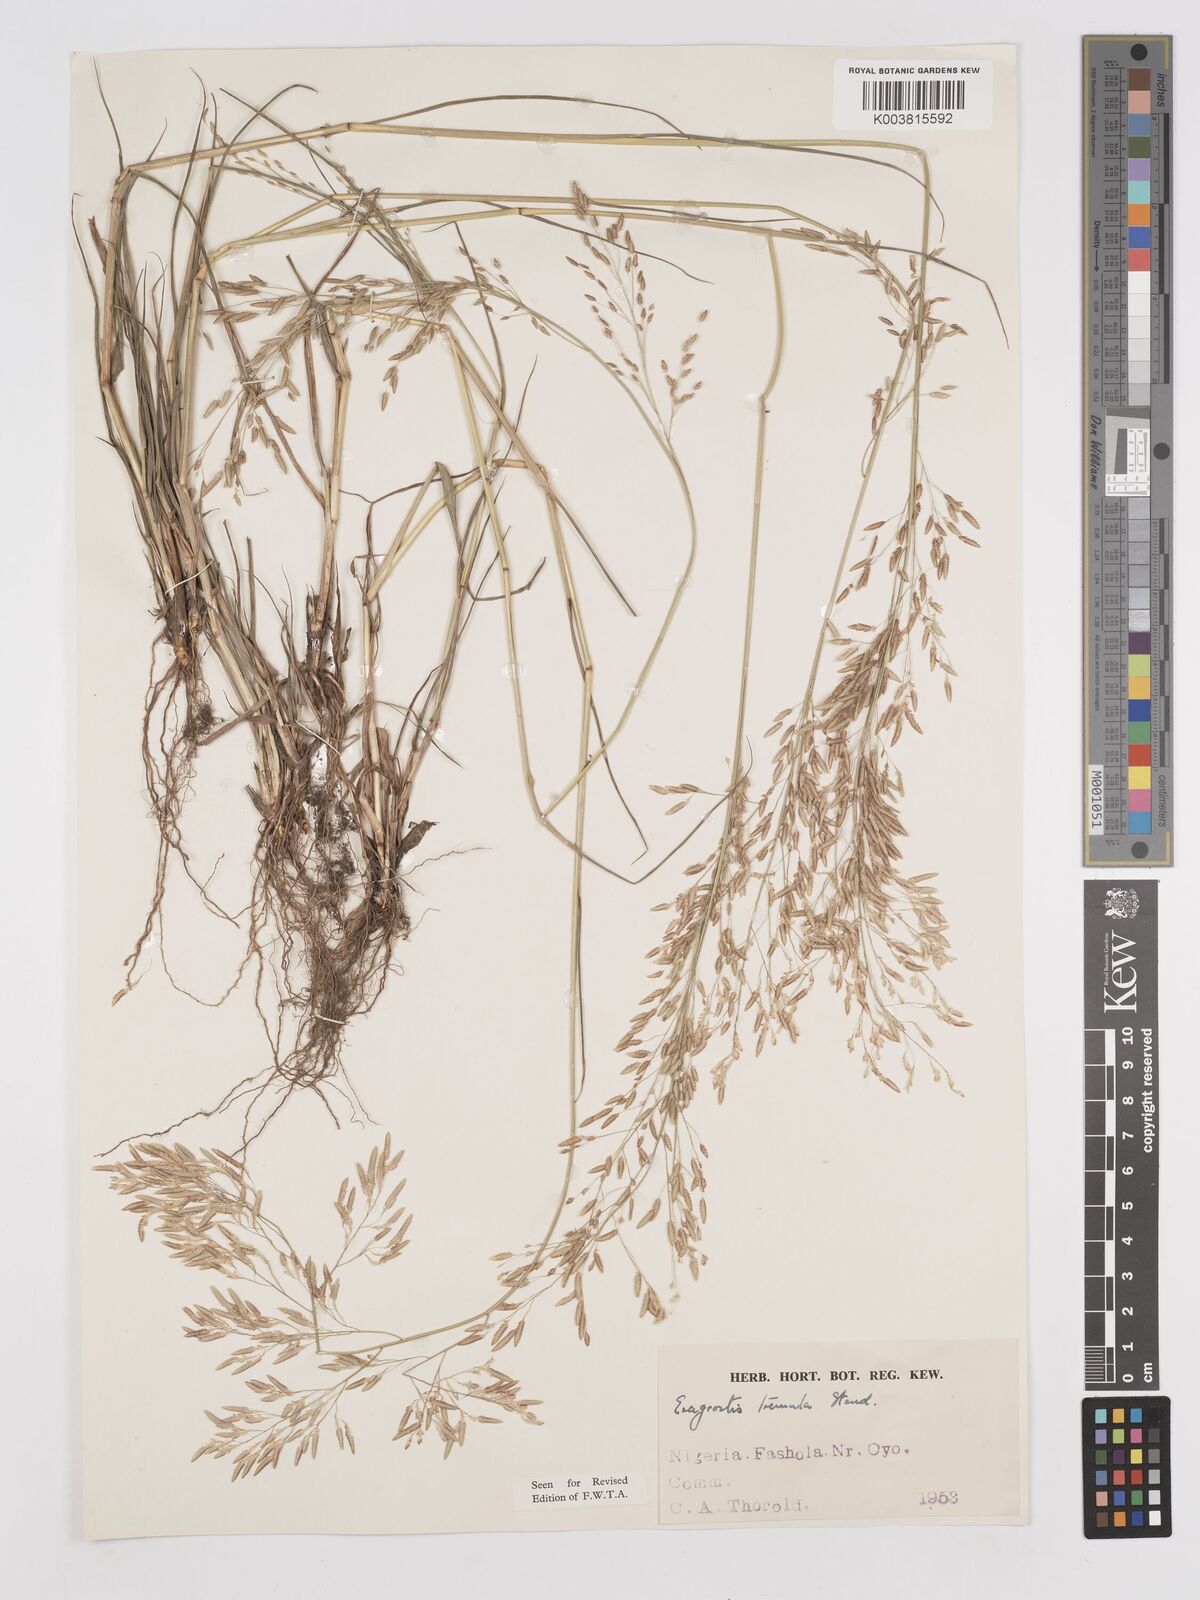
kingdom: Plantae
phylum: Tracheophyta
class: Liliopsida
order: Poales
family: Poaceae
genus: Eragrostis
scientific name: Eragrostis tremula
